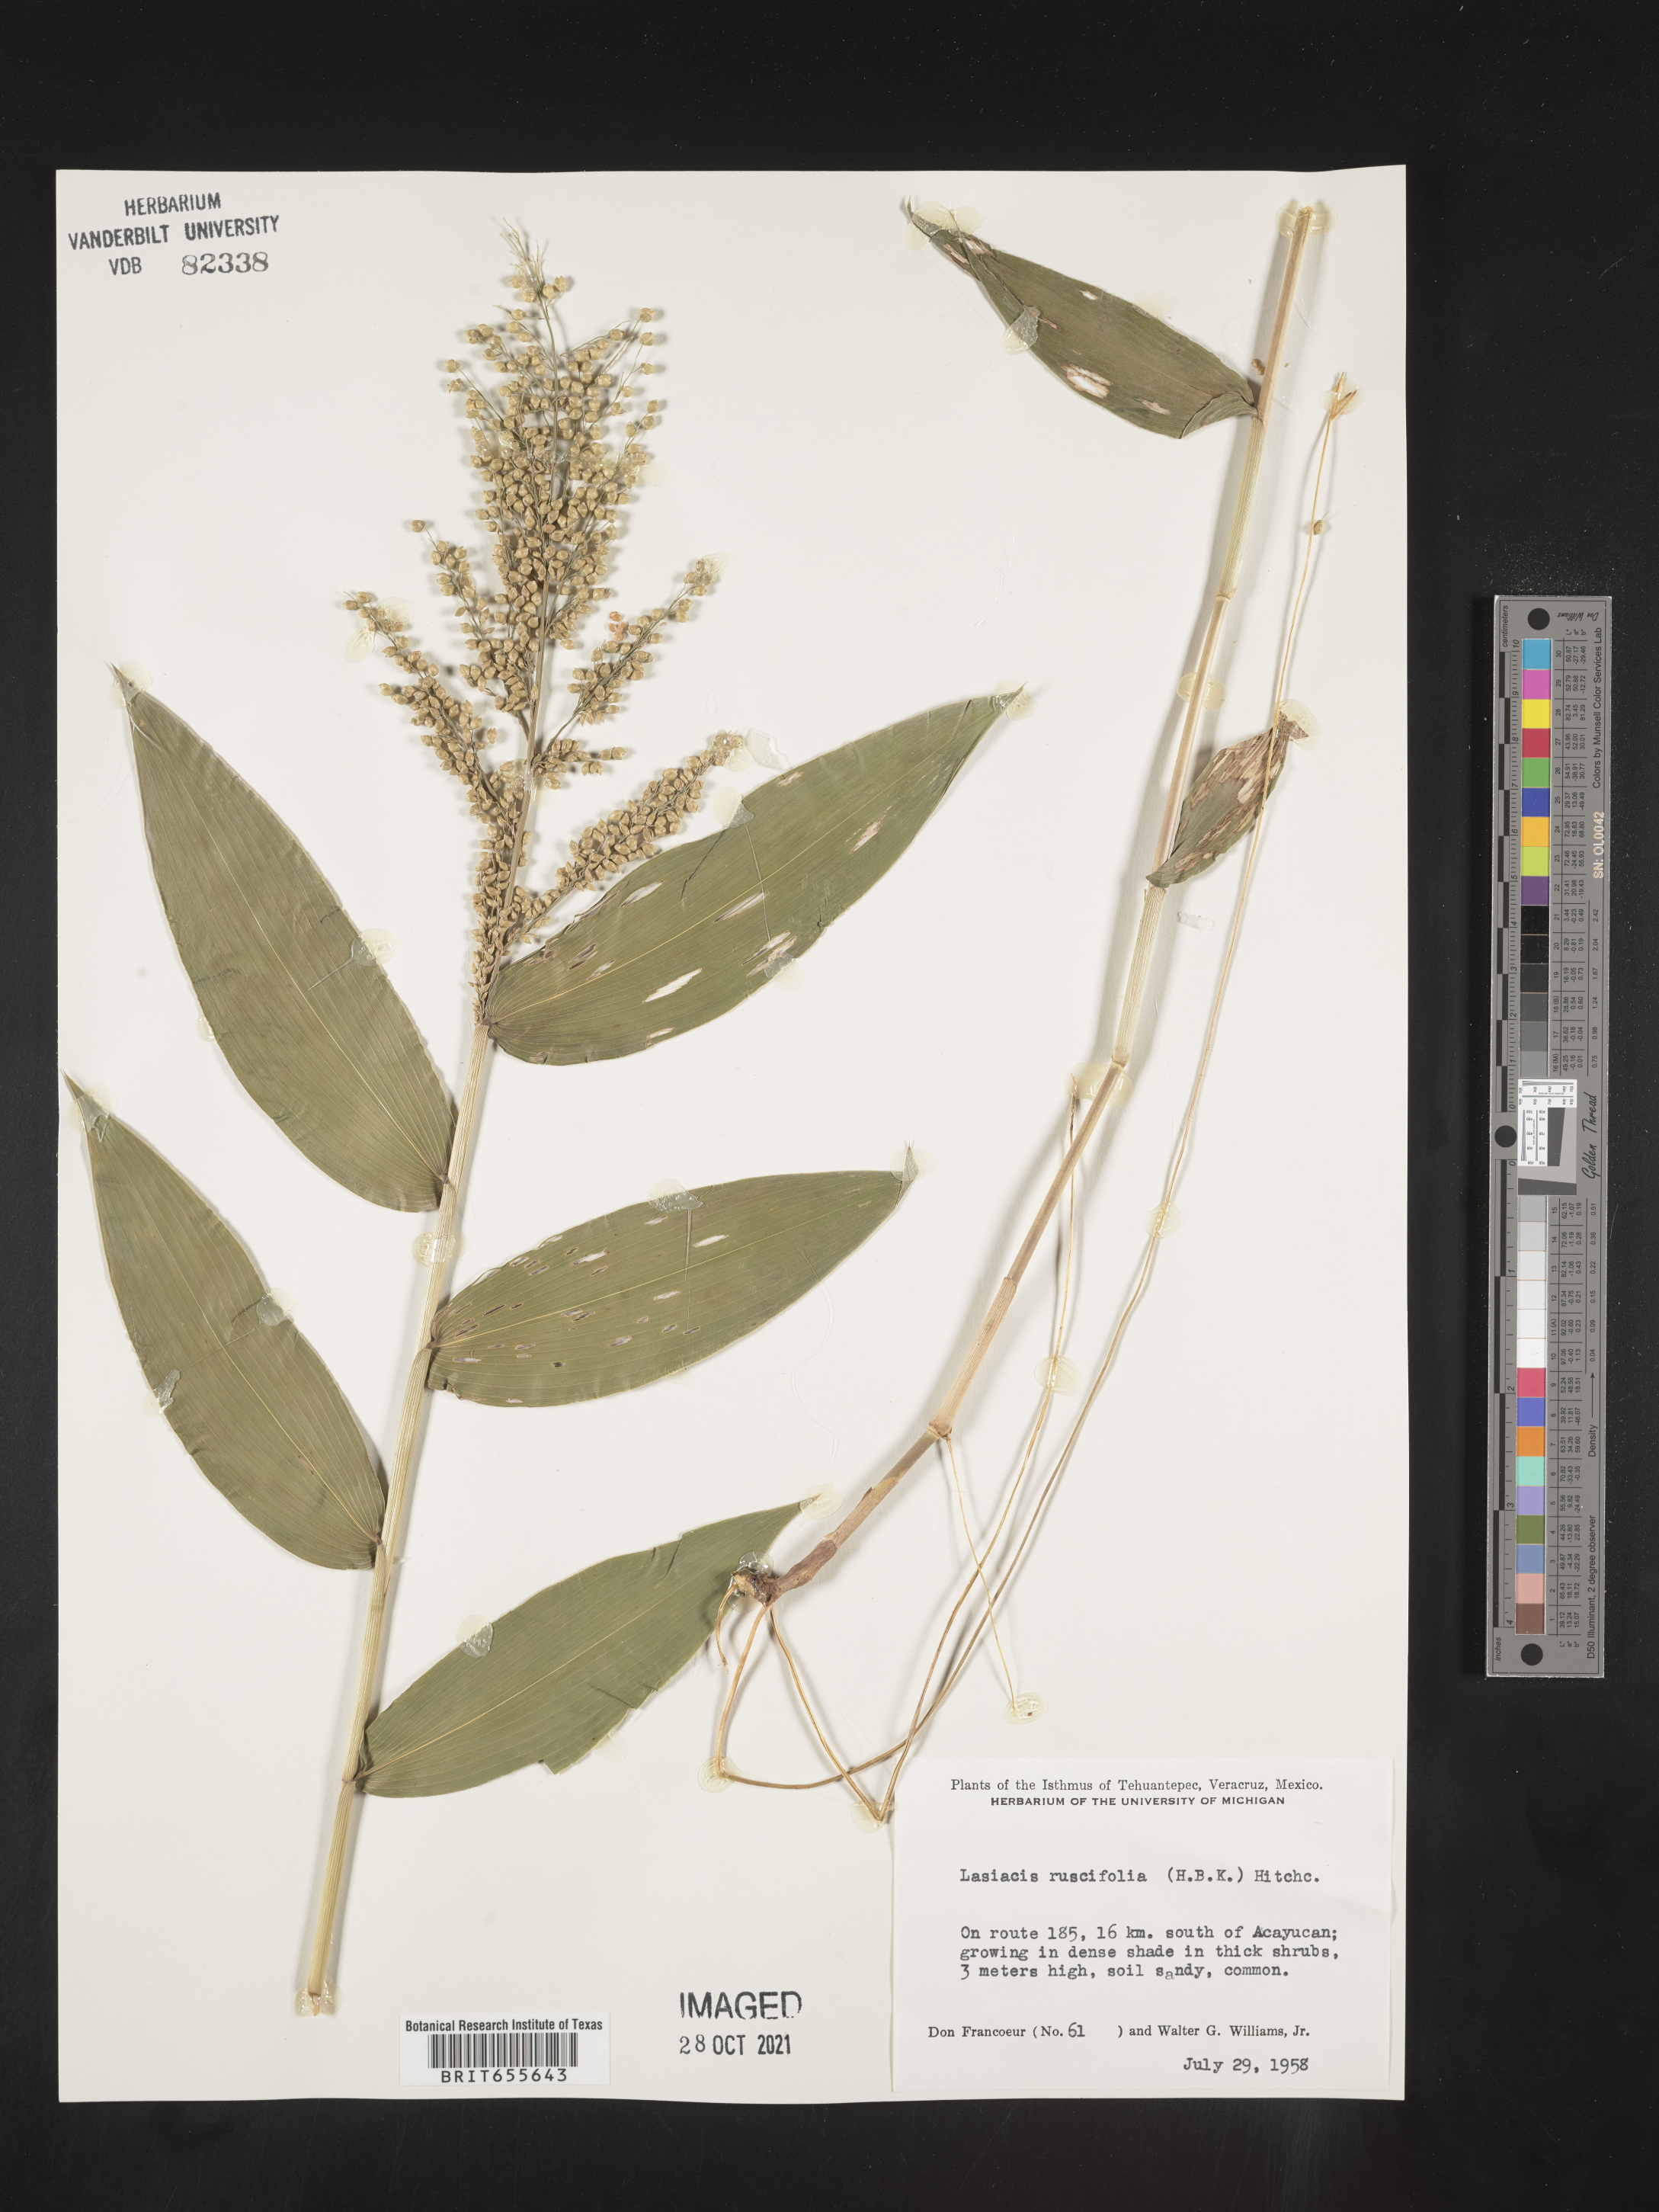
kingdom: Plantae
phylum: Tracheophyta
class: Liliopsida
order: Poales
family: Poaceae
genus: Lasiacis
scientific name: Lasiacis
